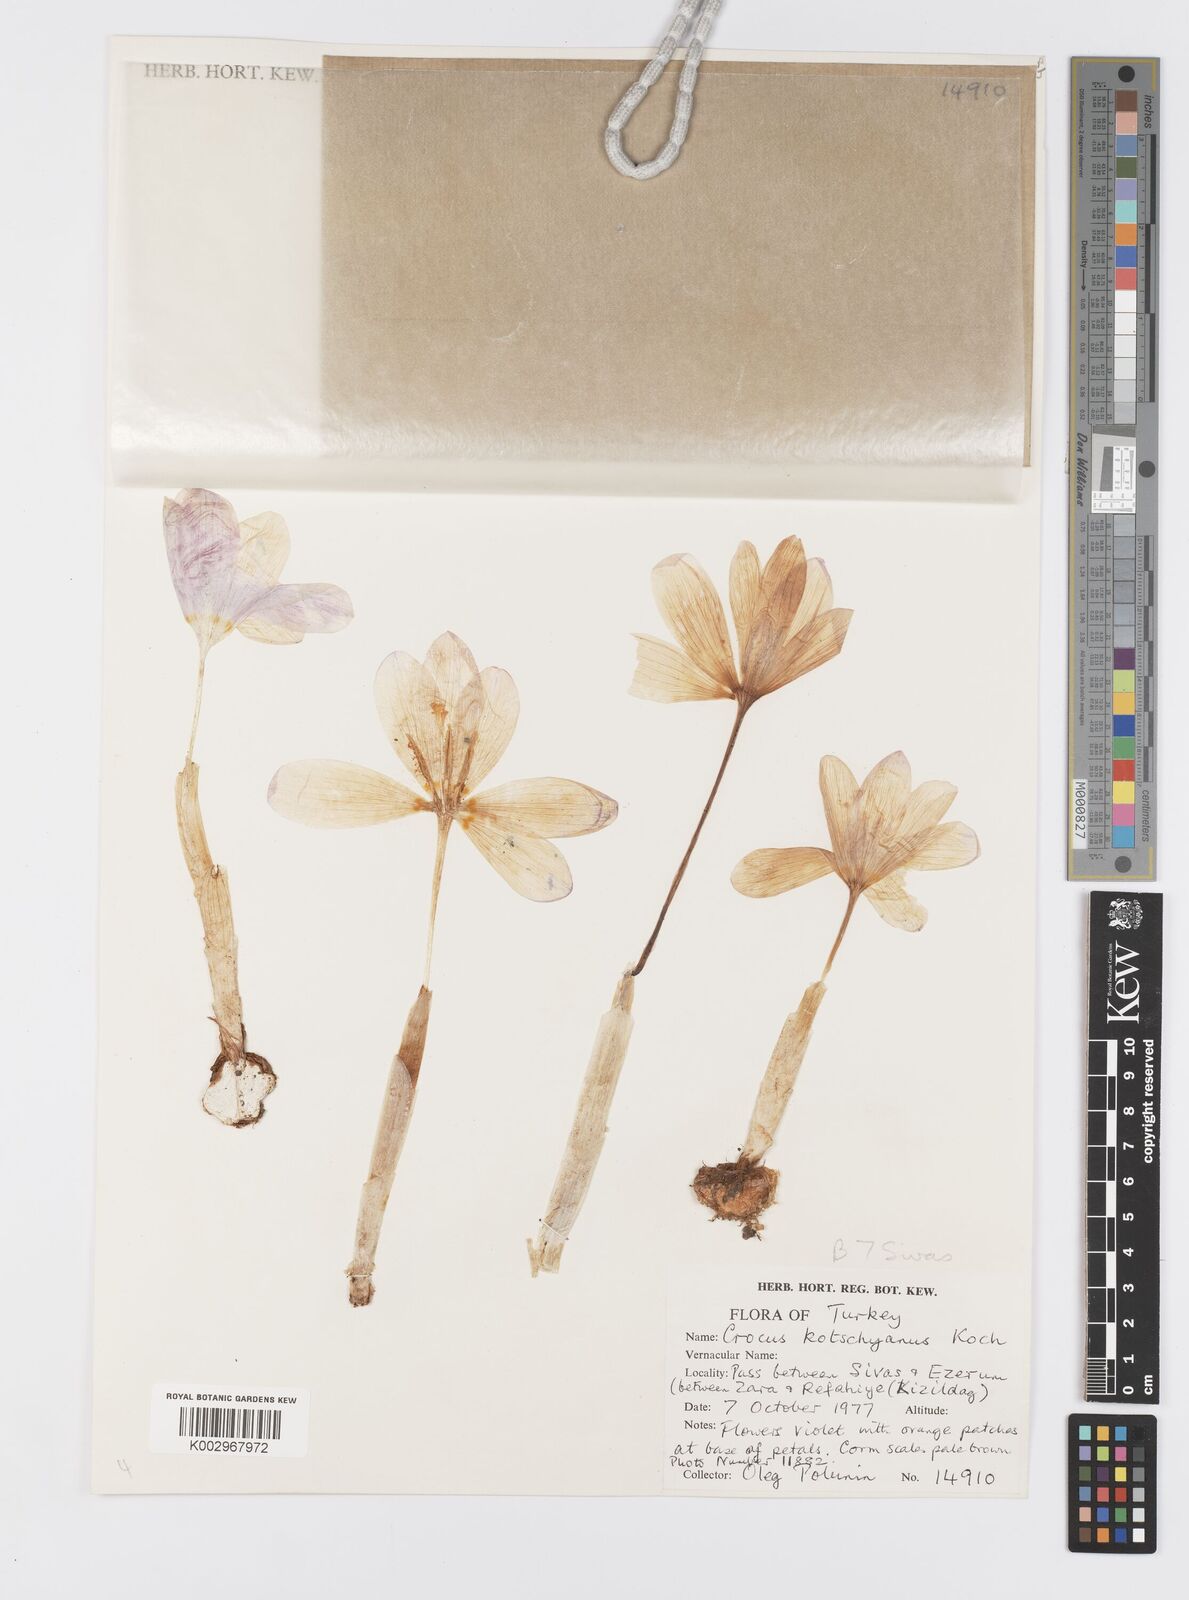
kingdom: Plantae
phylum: Tracheophyta
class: Liliopsida
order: Asparagales
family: Iridaceae
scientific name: Iridaceae
